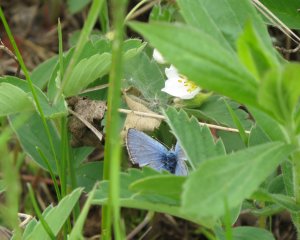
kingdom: Animalia
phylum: Arthropoda
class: Insecta
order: Lepidoptera
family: Lycaenidae
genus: Glaucopsyche
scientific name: Glaucopsyche lygdamus
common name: Silvery Blue
